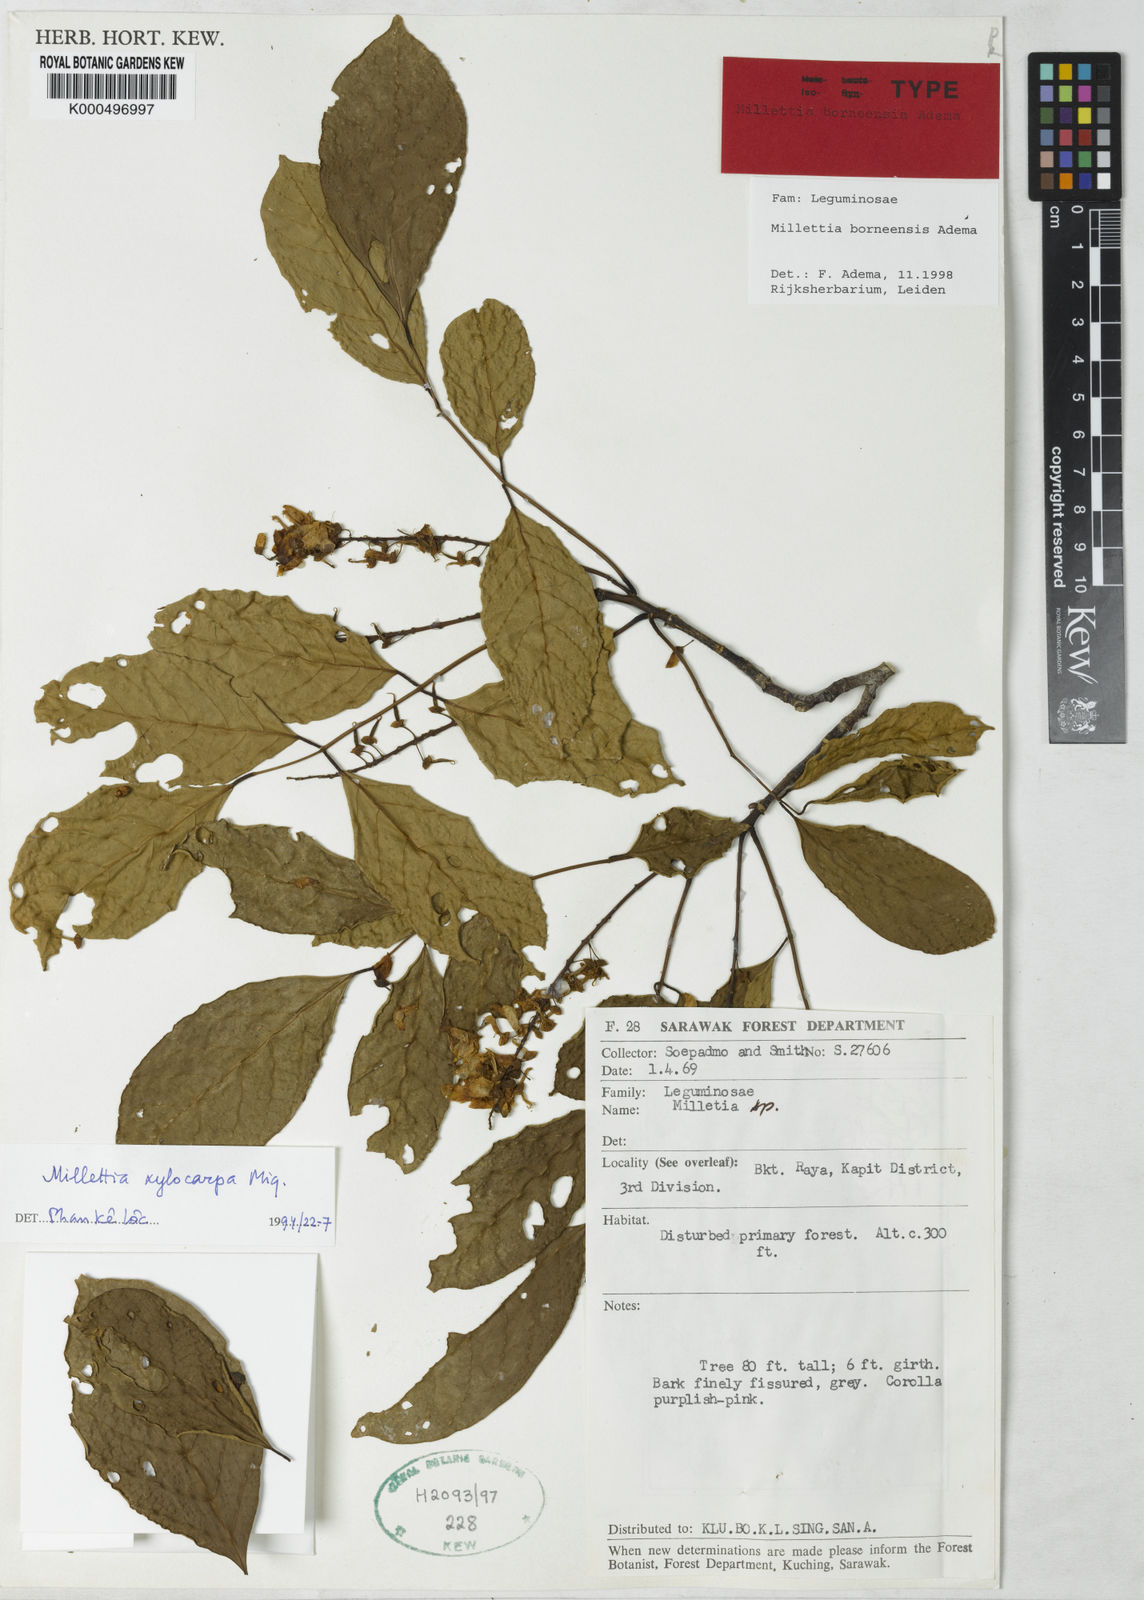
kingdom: Plantae
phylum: Tracheophyta
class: Magnoliopsida
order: Fabales
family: Fabaceae
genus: Millettia
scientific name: Millettia borneensis
